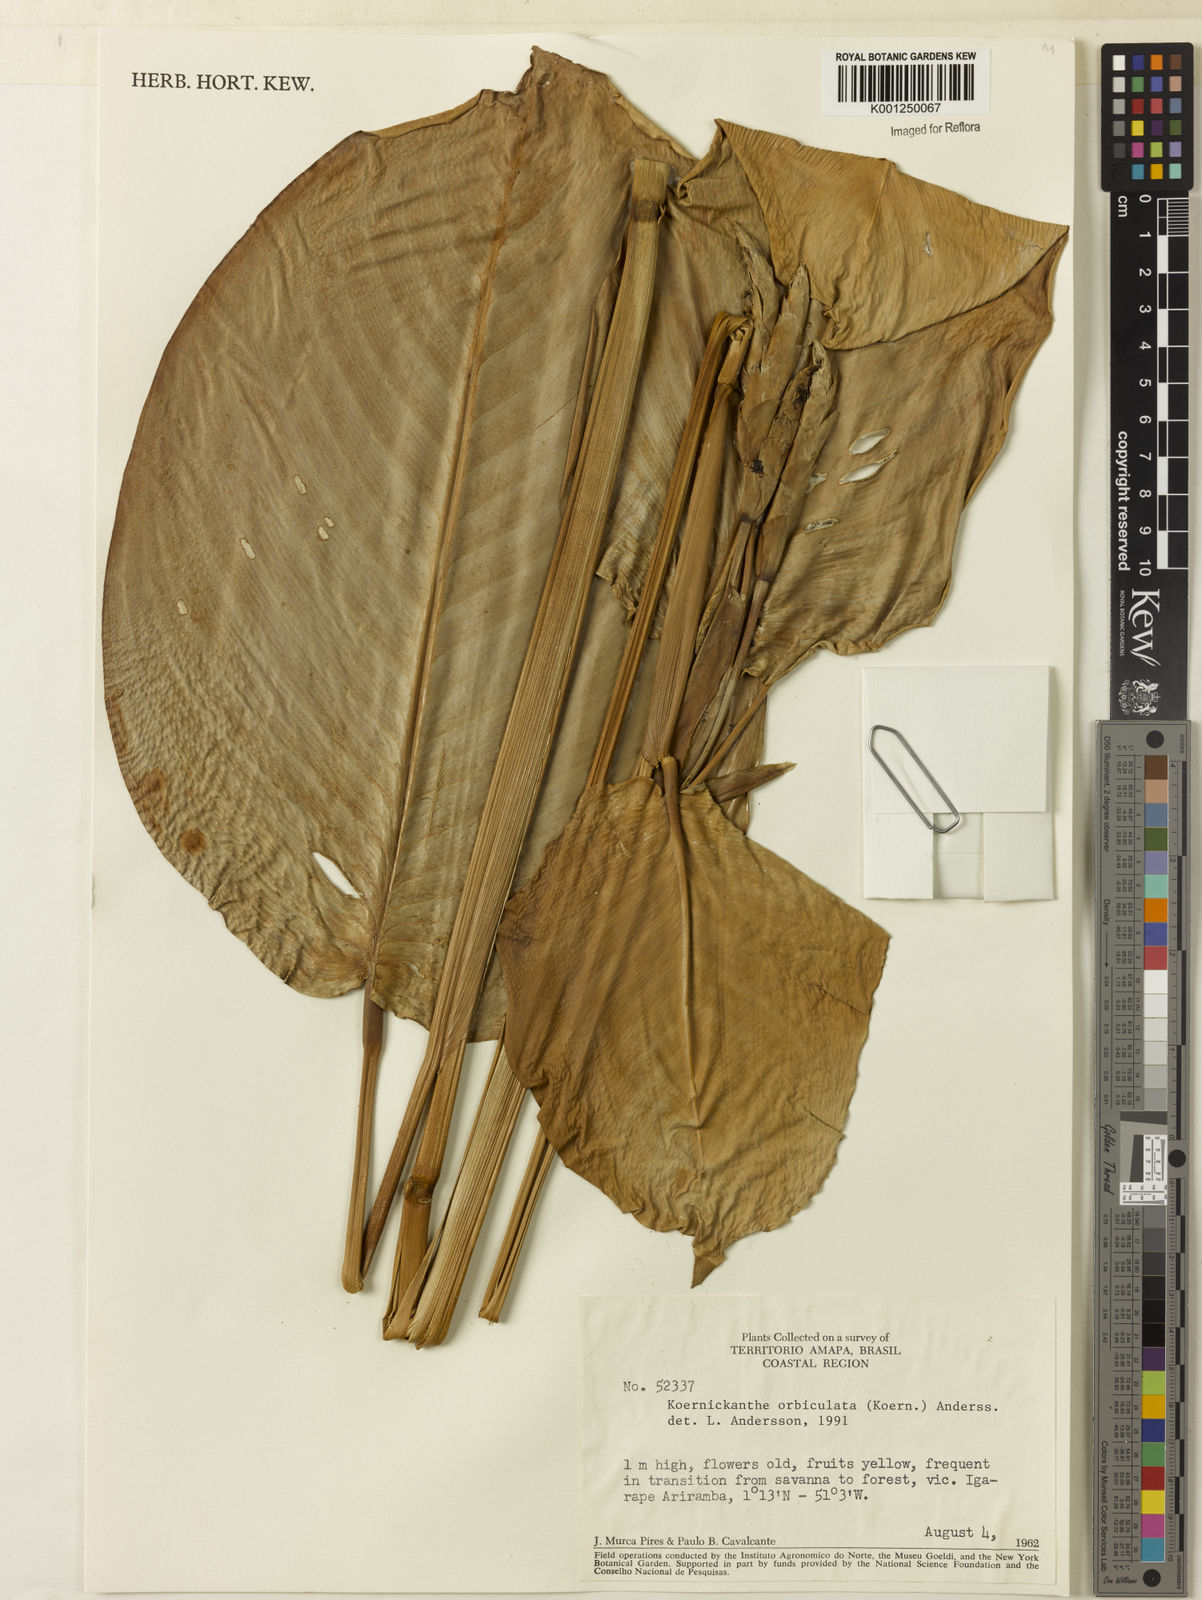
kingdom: Plantae
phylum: Tracheophyta
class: Liliopsida
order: Zingiberales
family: Marantaceae
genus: Koernickanthe
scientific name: Koernickanthe orbiculata
